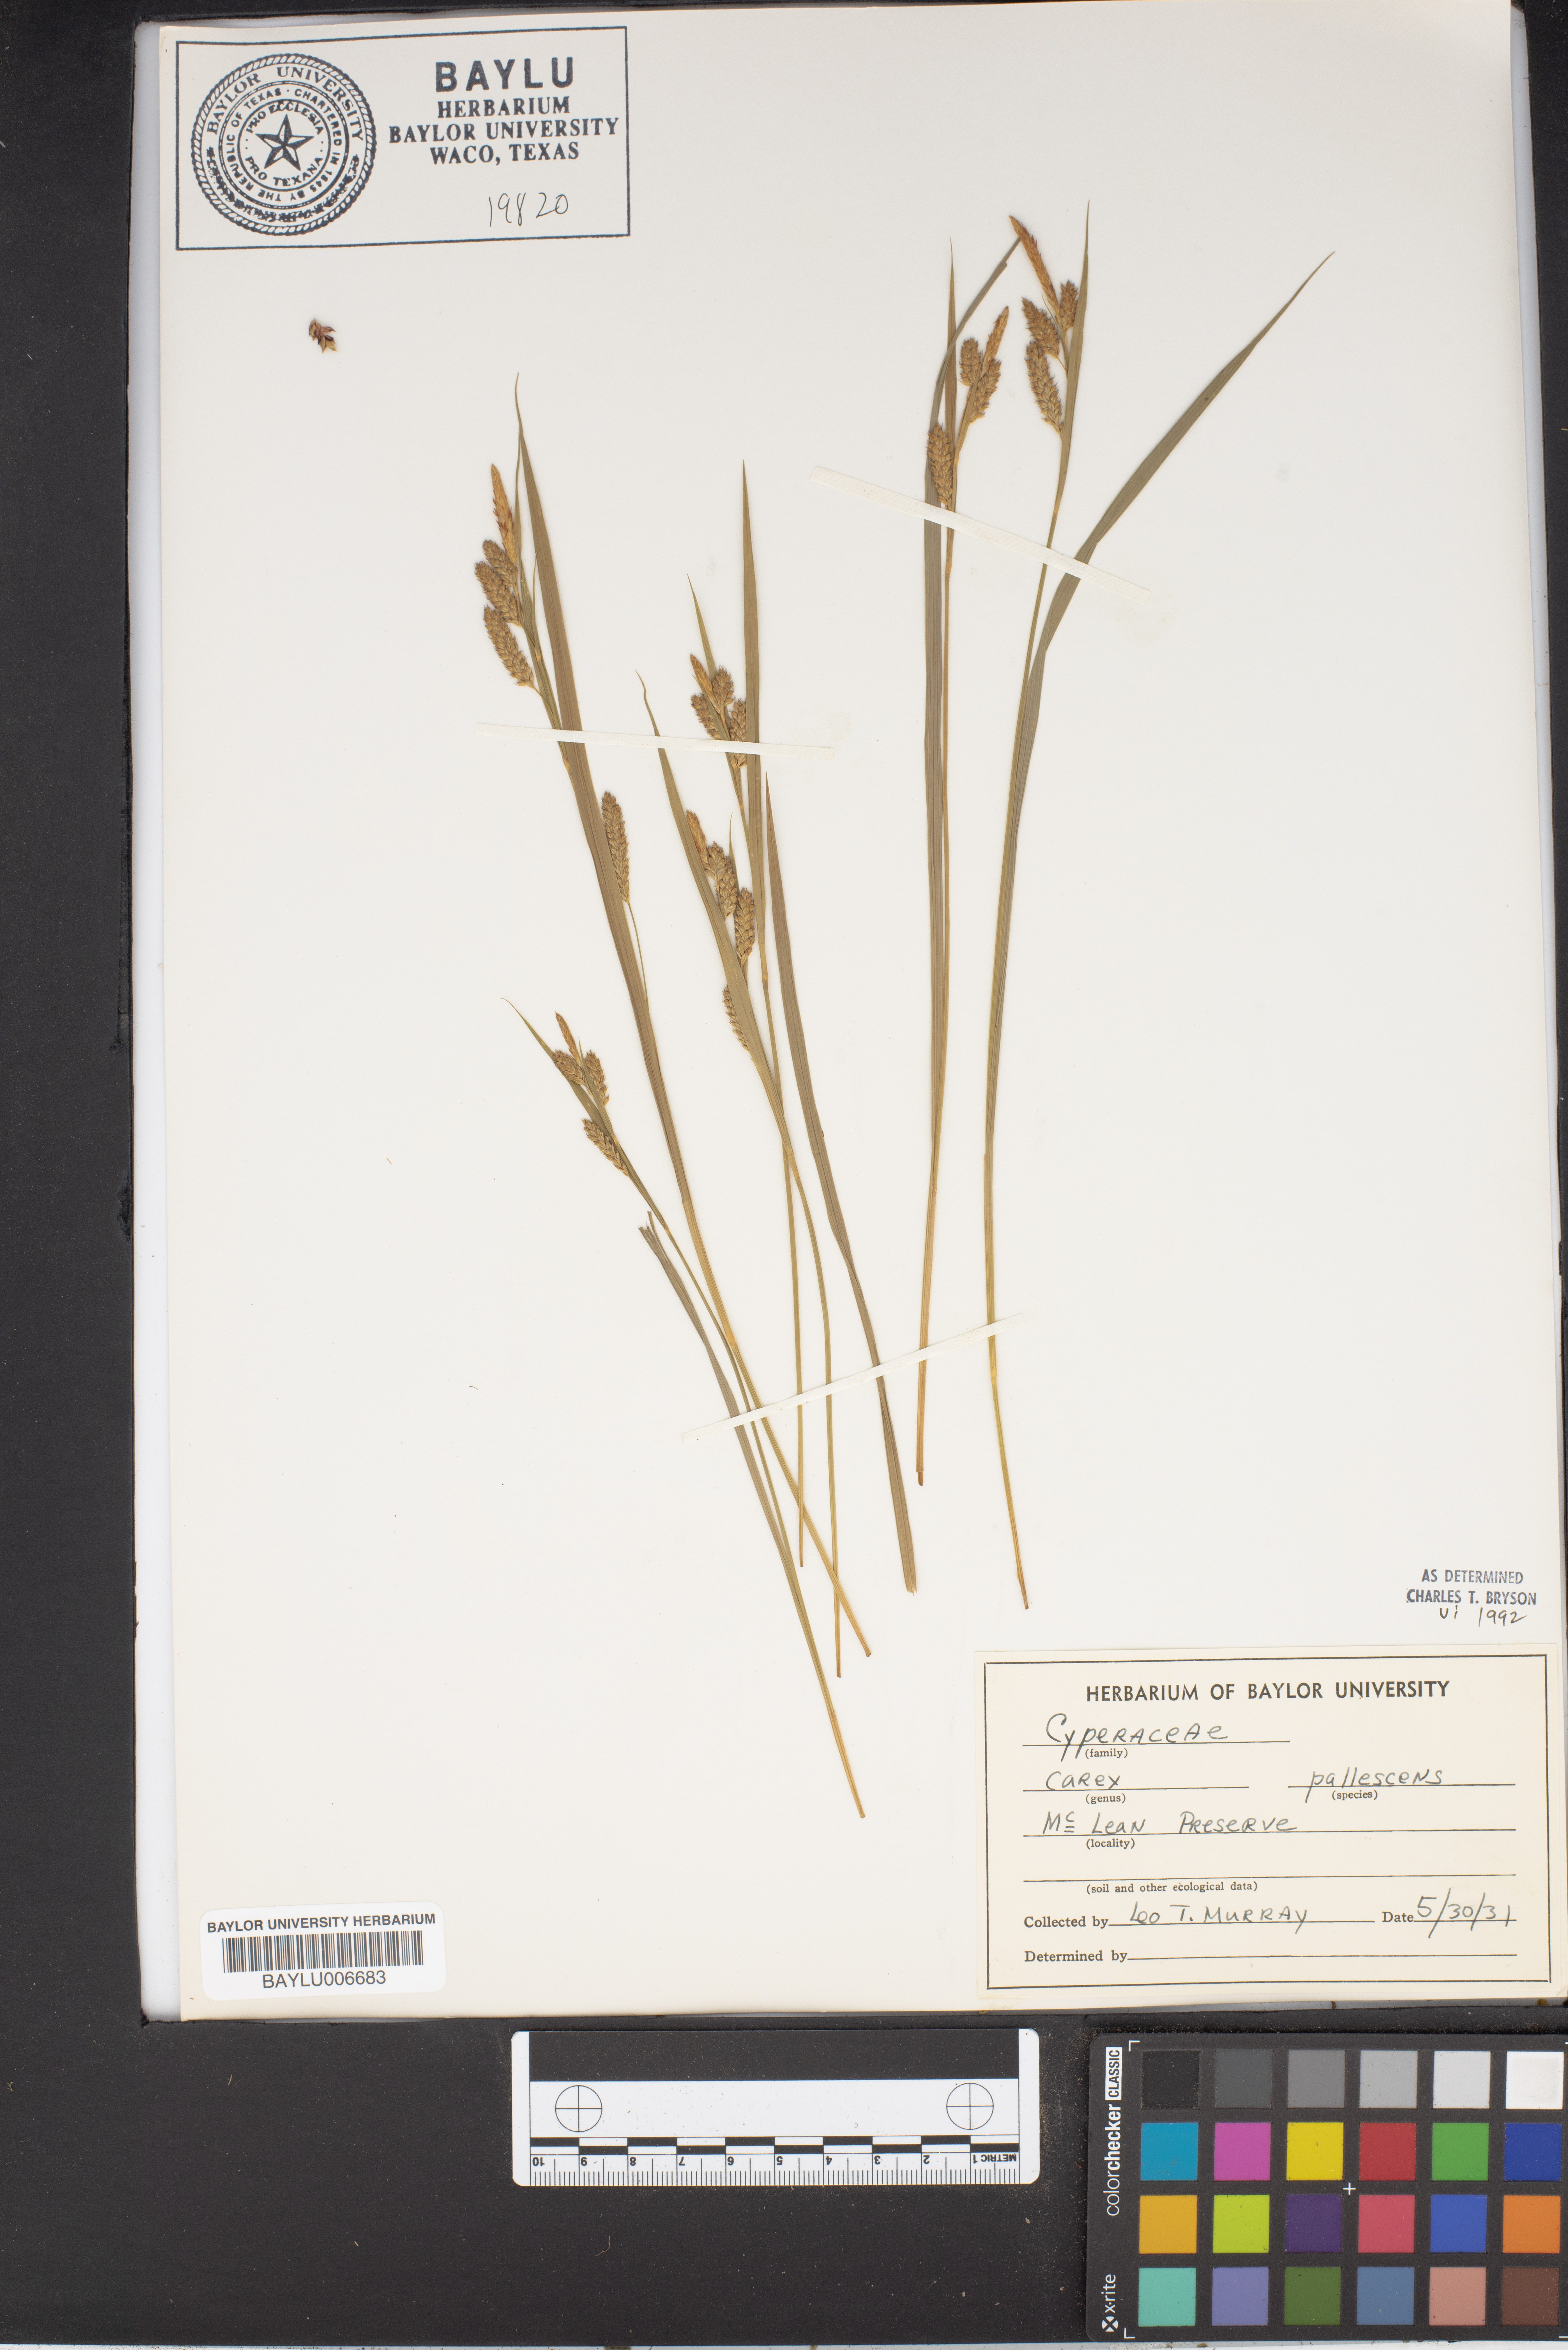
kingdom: Plantae
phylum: Tracheophyta
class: Liliopsida
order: Poales
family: Cyperaceae
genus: Carex
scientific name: Carex pallescens
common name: Pale sedge
